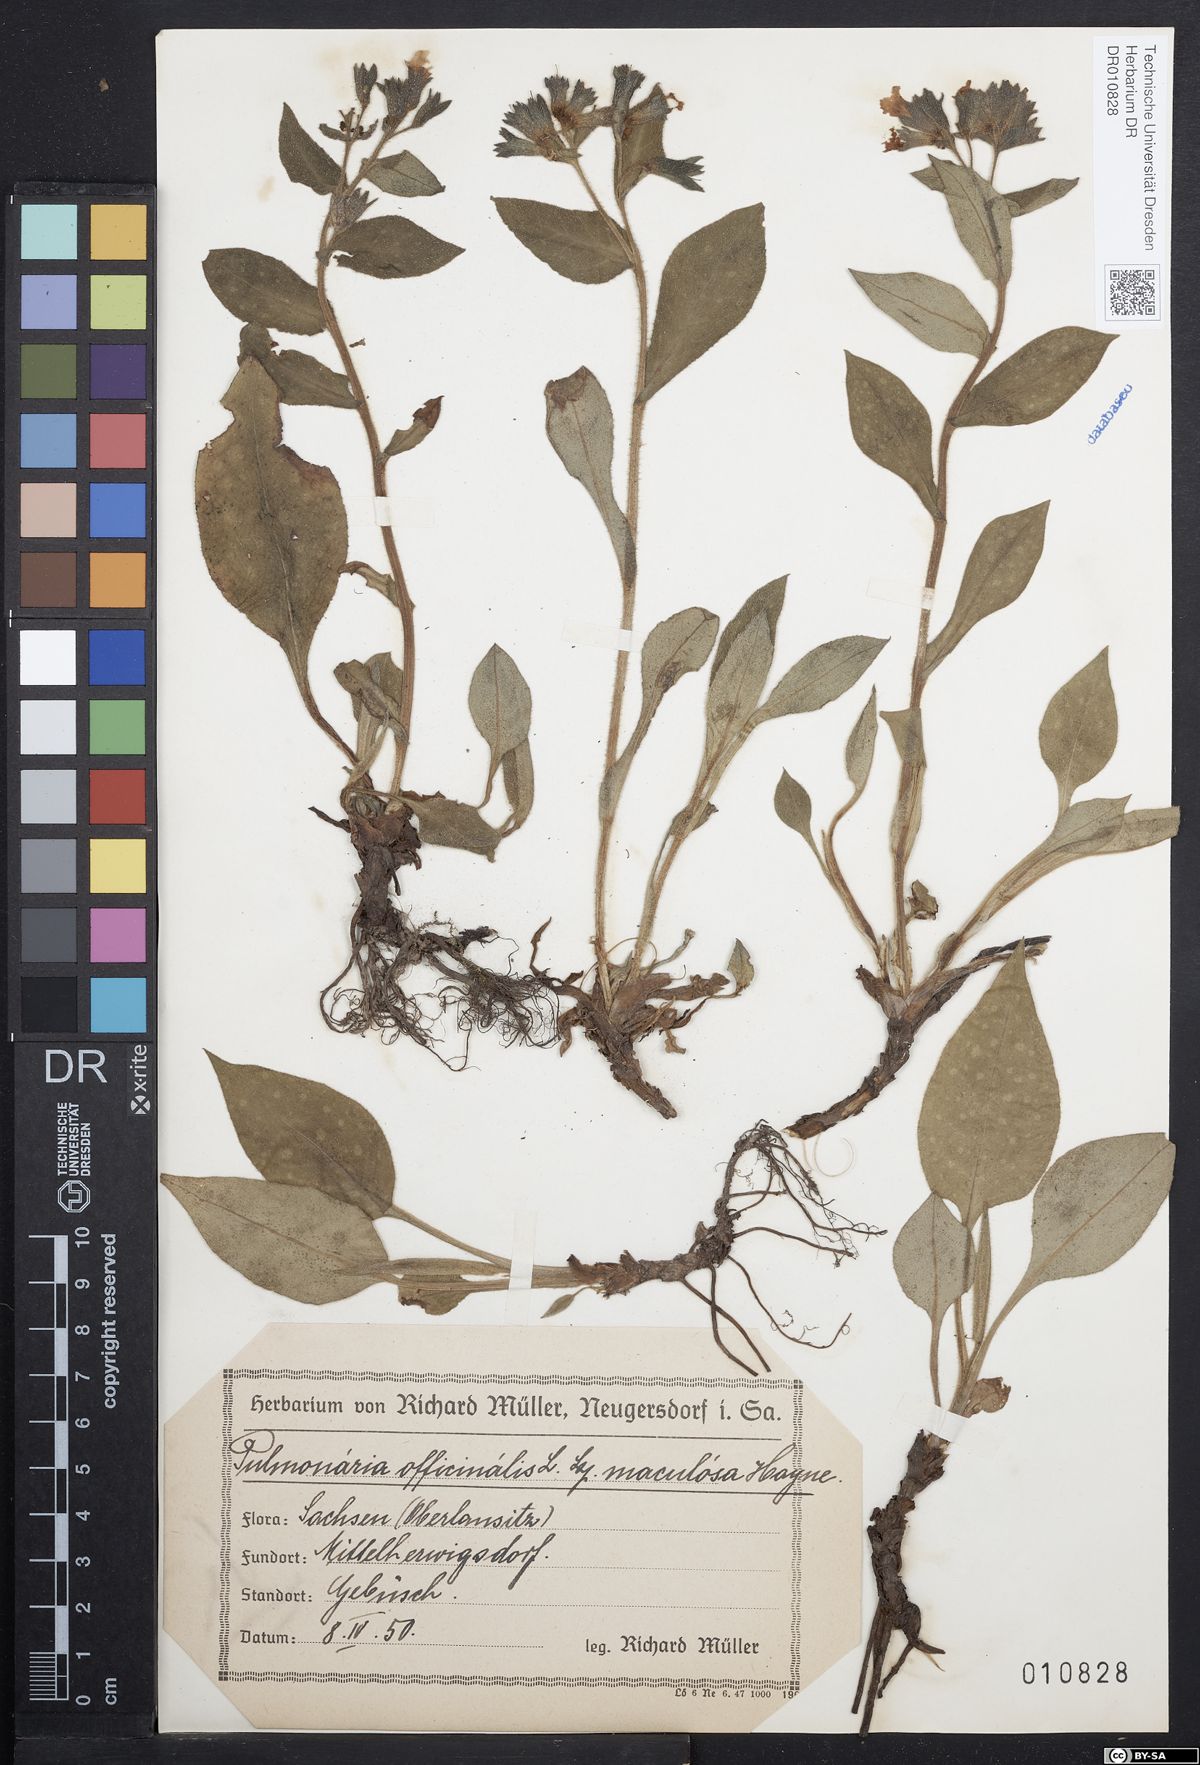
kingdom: Plantae
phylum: Tracheophyta
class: Magnoliopsida
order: Boraginales
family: Boraginaceae
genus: Pulmonaria
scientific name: Pulmonaria officinalis
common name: Lungwort
